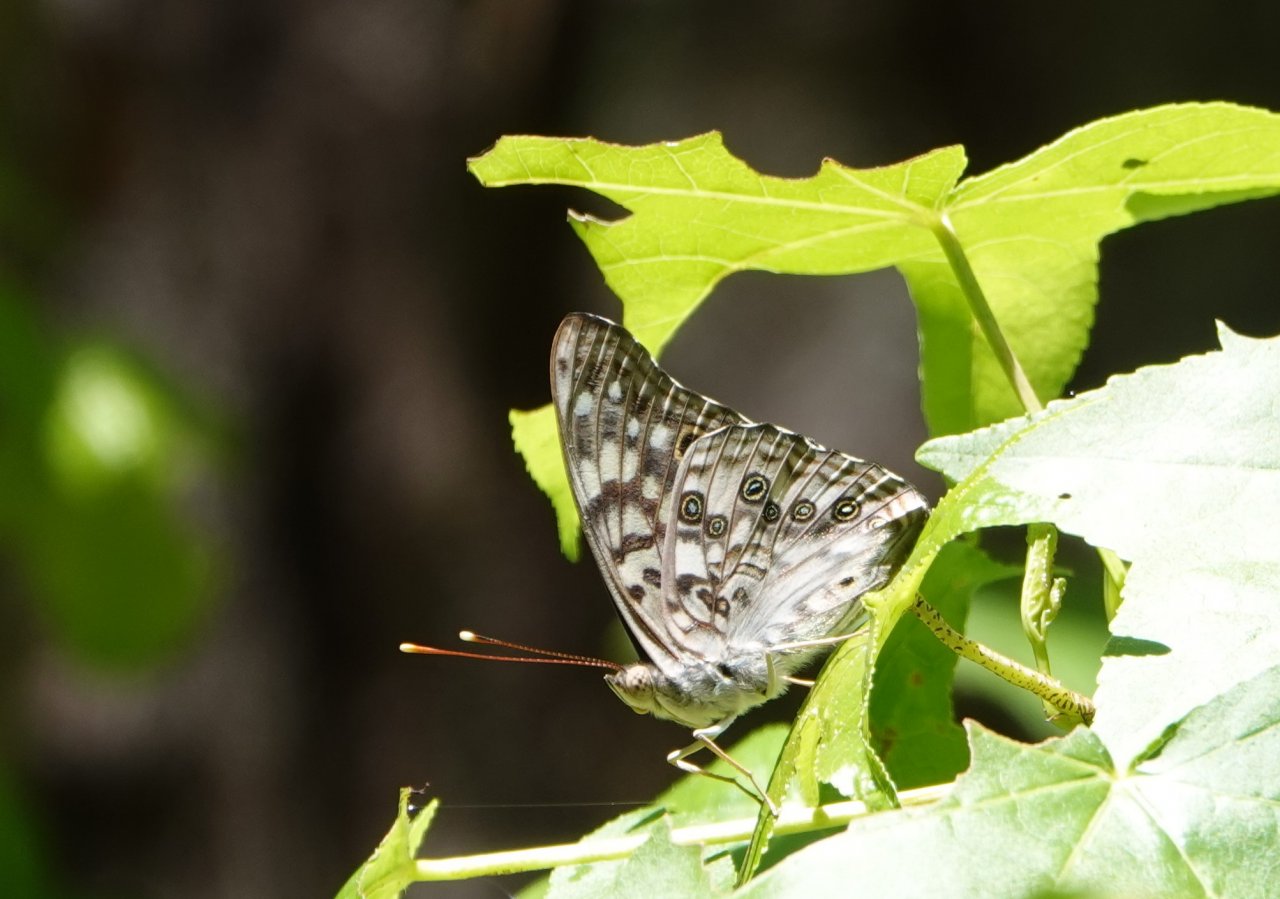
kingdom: Animalia
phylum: Arthropoda
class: Insecta
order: Lepidoptera
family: Nymphalidae
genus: Asterocampa
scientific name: Asterocampa celtis
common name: Hackberry Emperor
